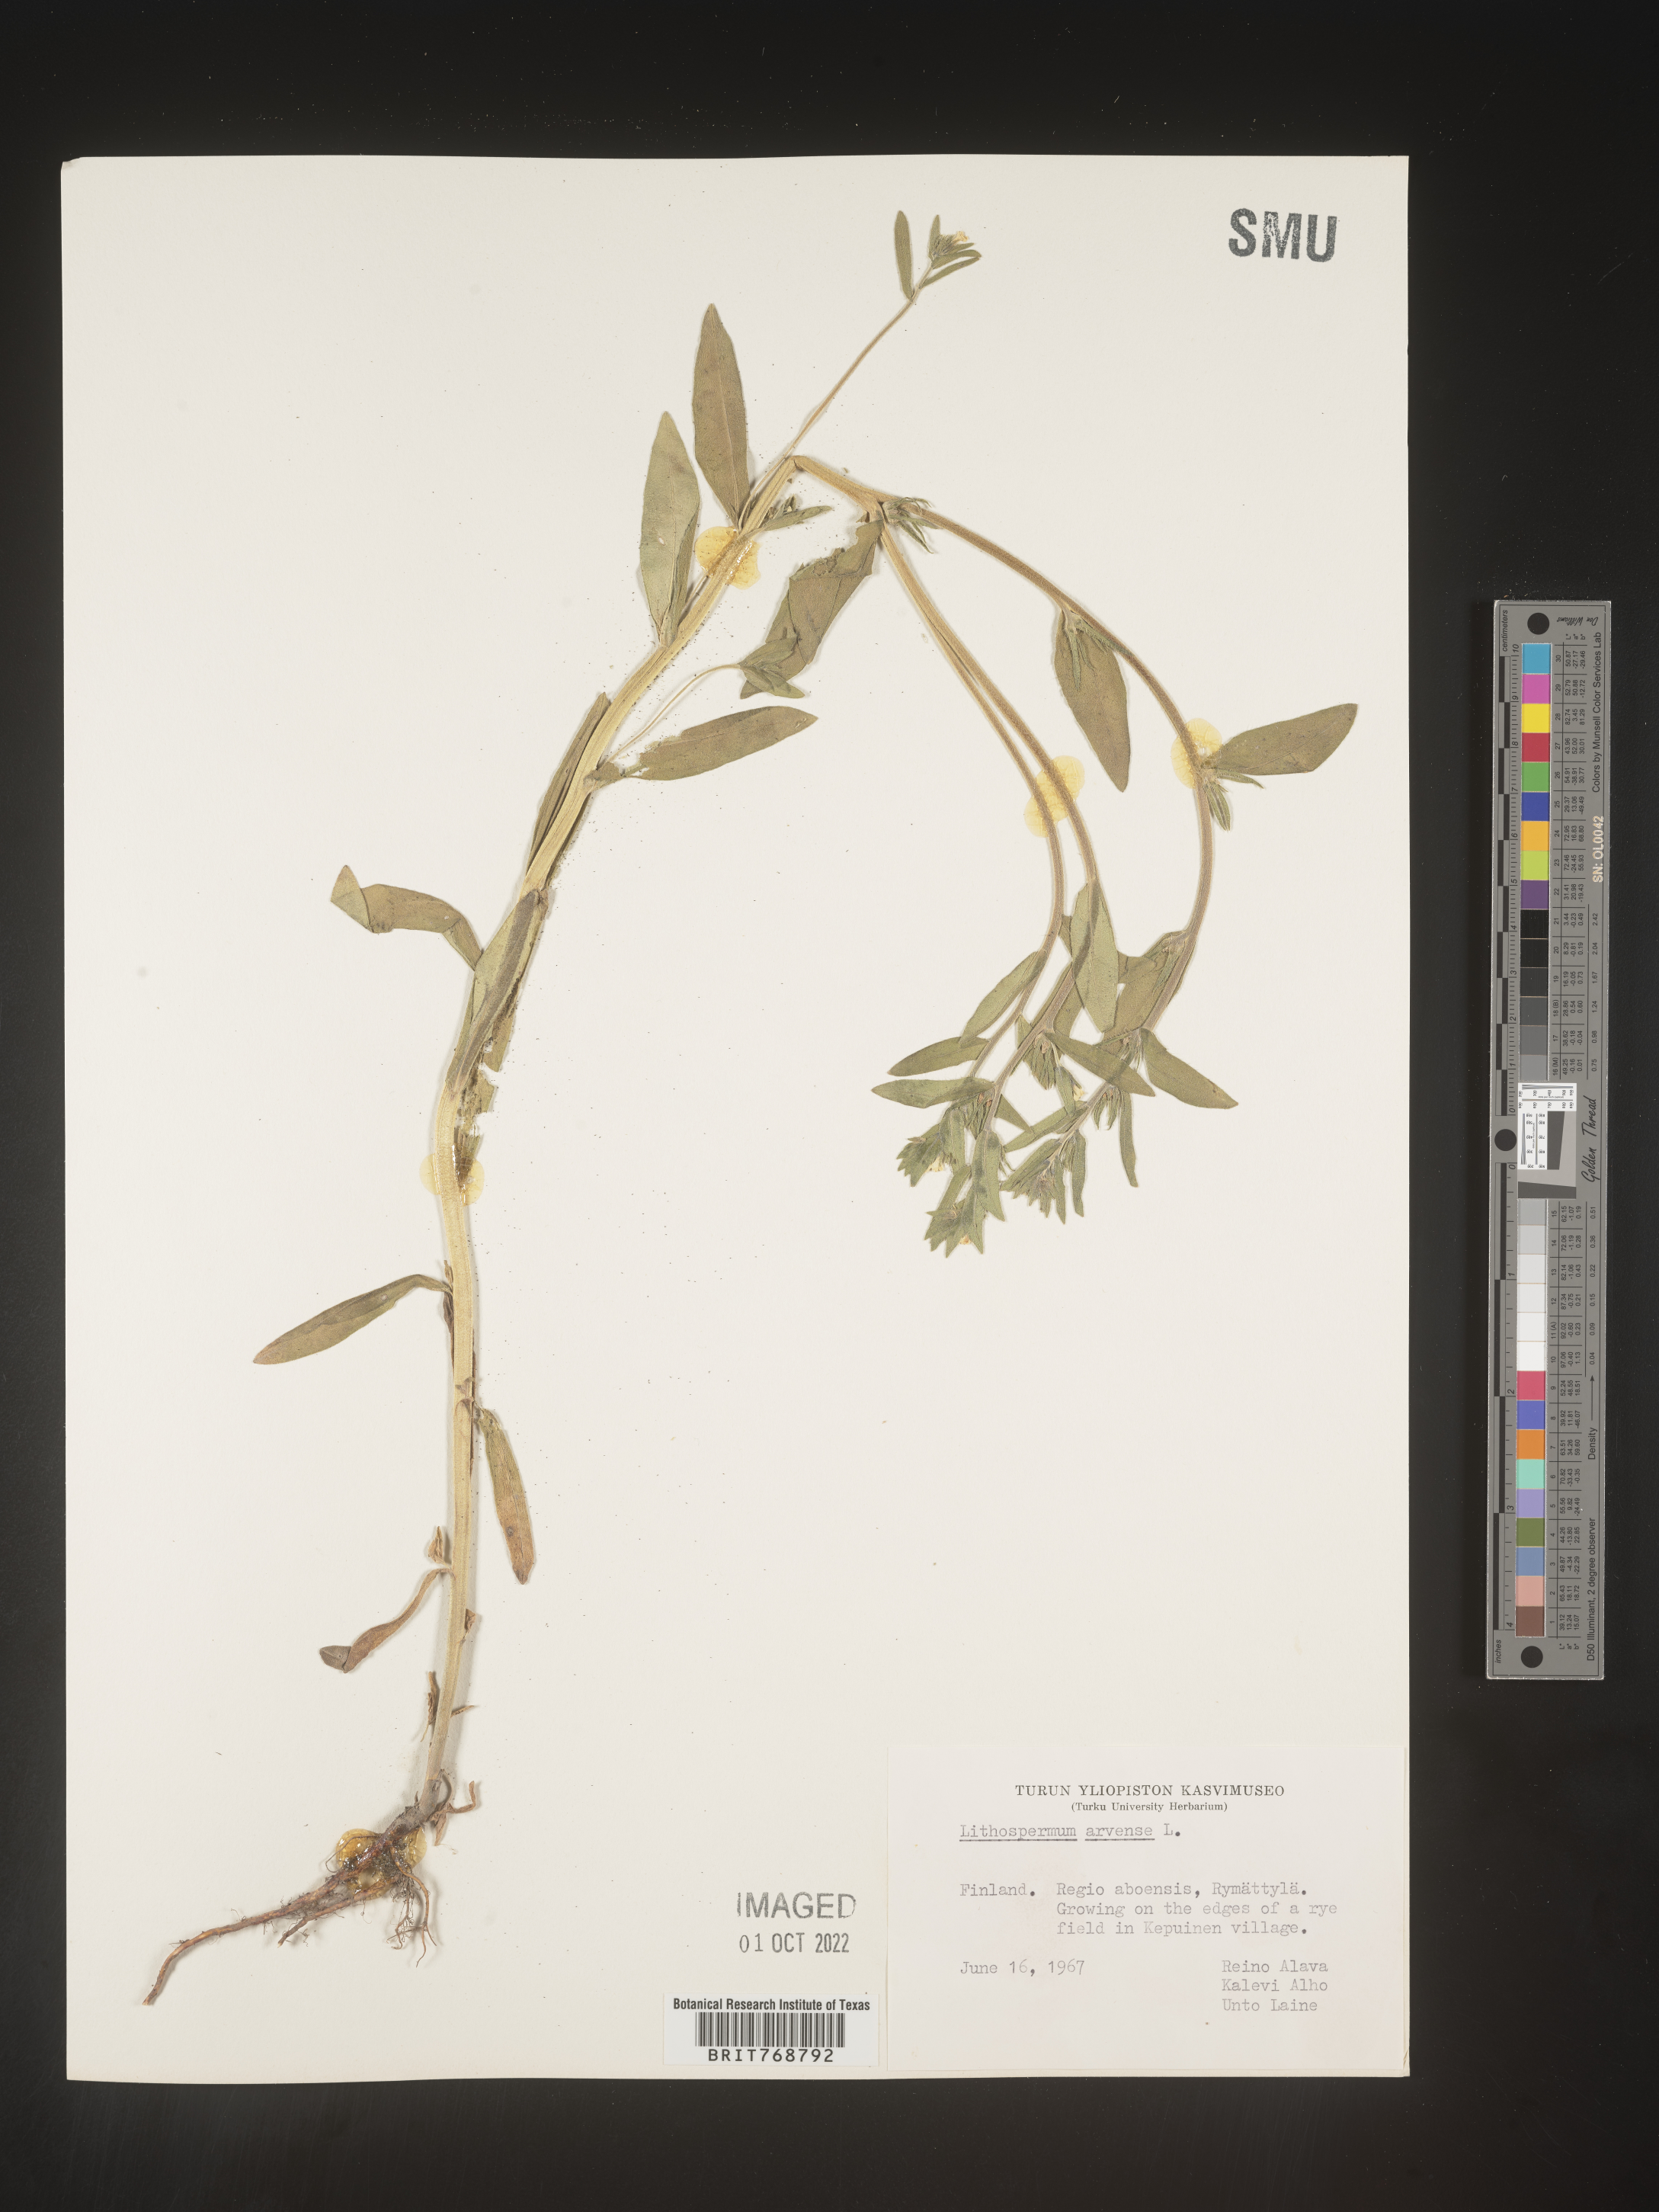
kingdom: Plantae
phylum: Tracheophyta
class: Magnoliopsida
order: Boraginales
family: Boraginaceae
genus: Lithospermum
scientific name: Lithospermum
